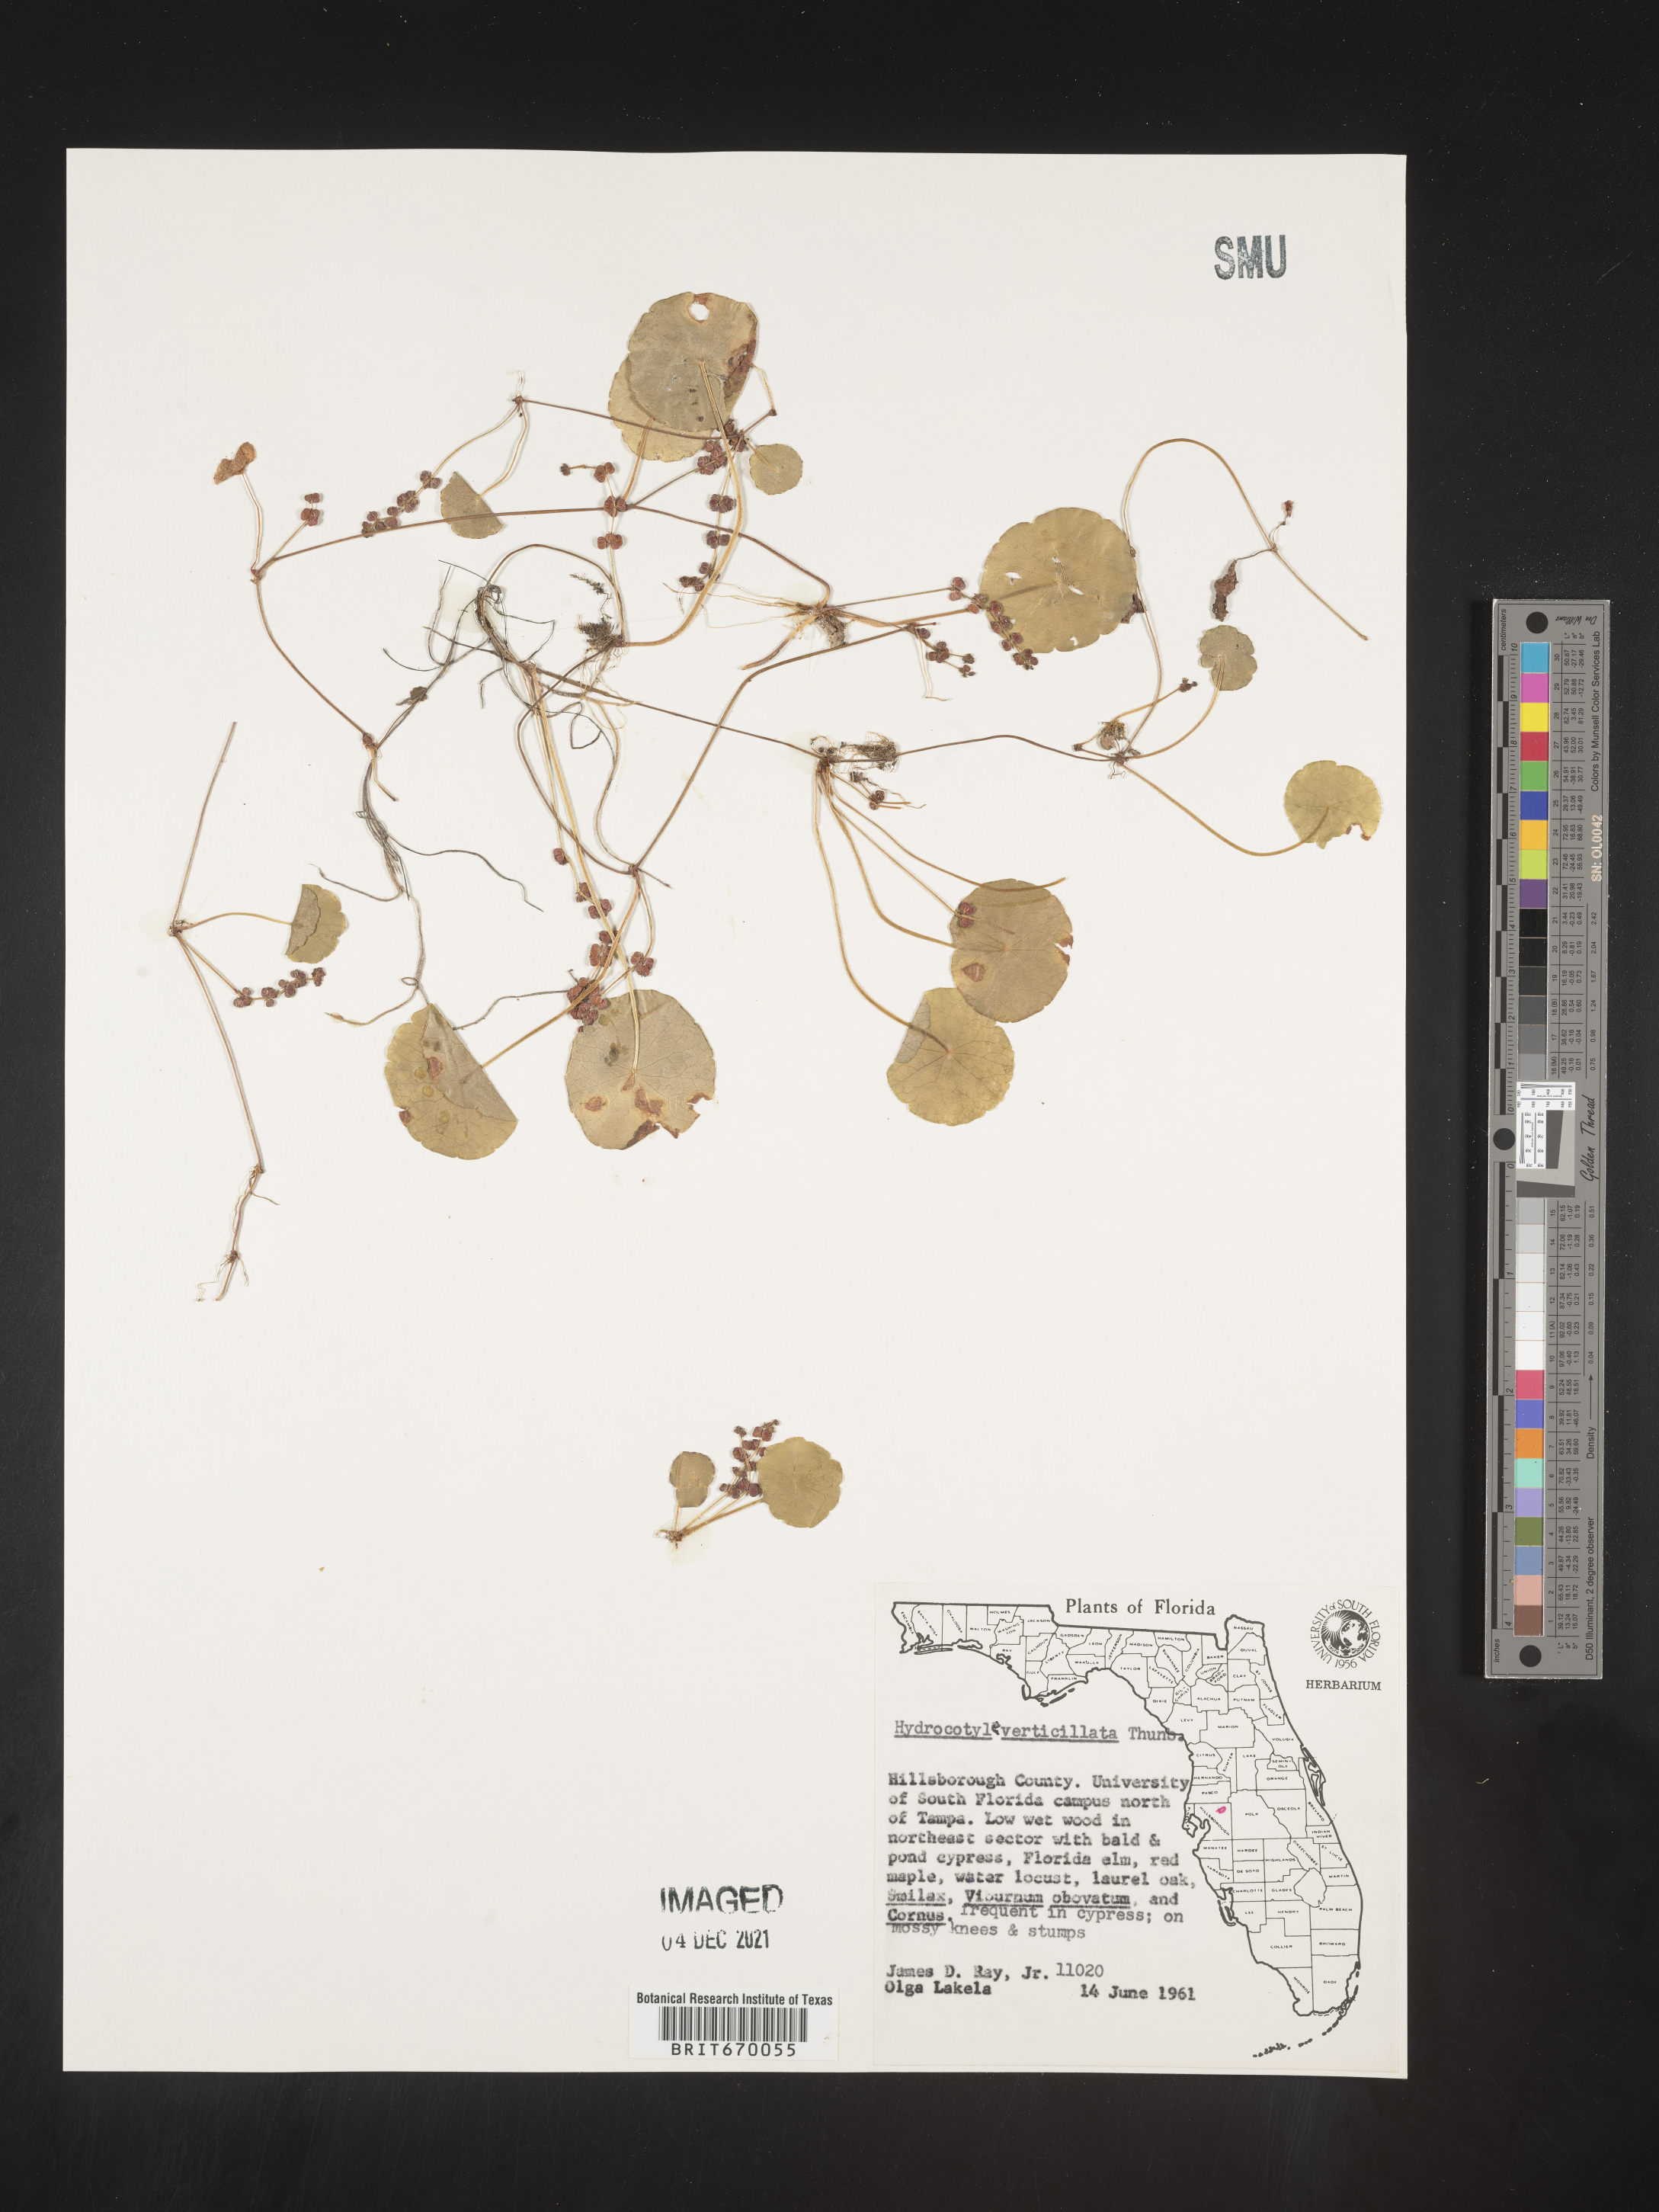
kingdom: Plantae
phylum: Tracheophyta
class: Magnoliopsida
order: Apiales
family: Araliaceae
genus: Hydrocotyle
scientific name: Hydrocotyle verticillata
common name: Whorled marshpennywort
